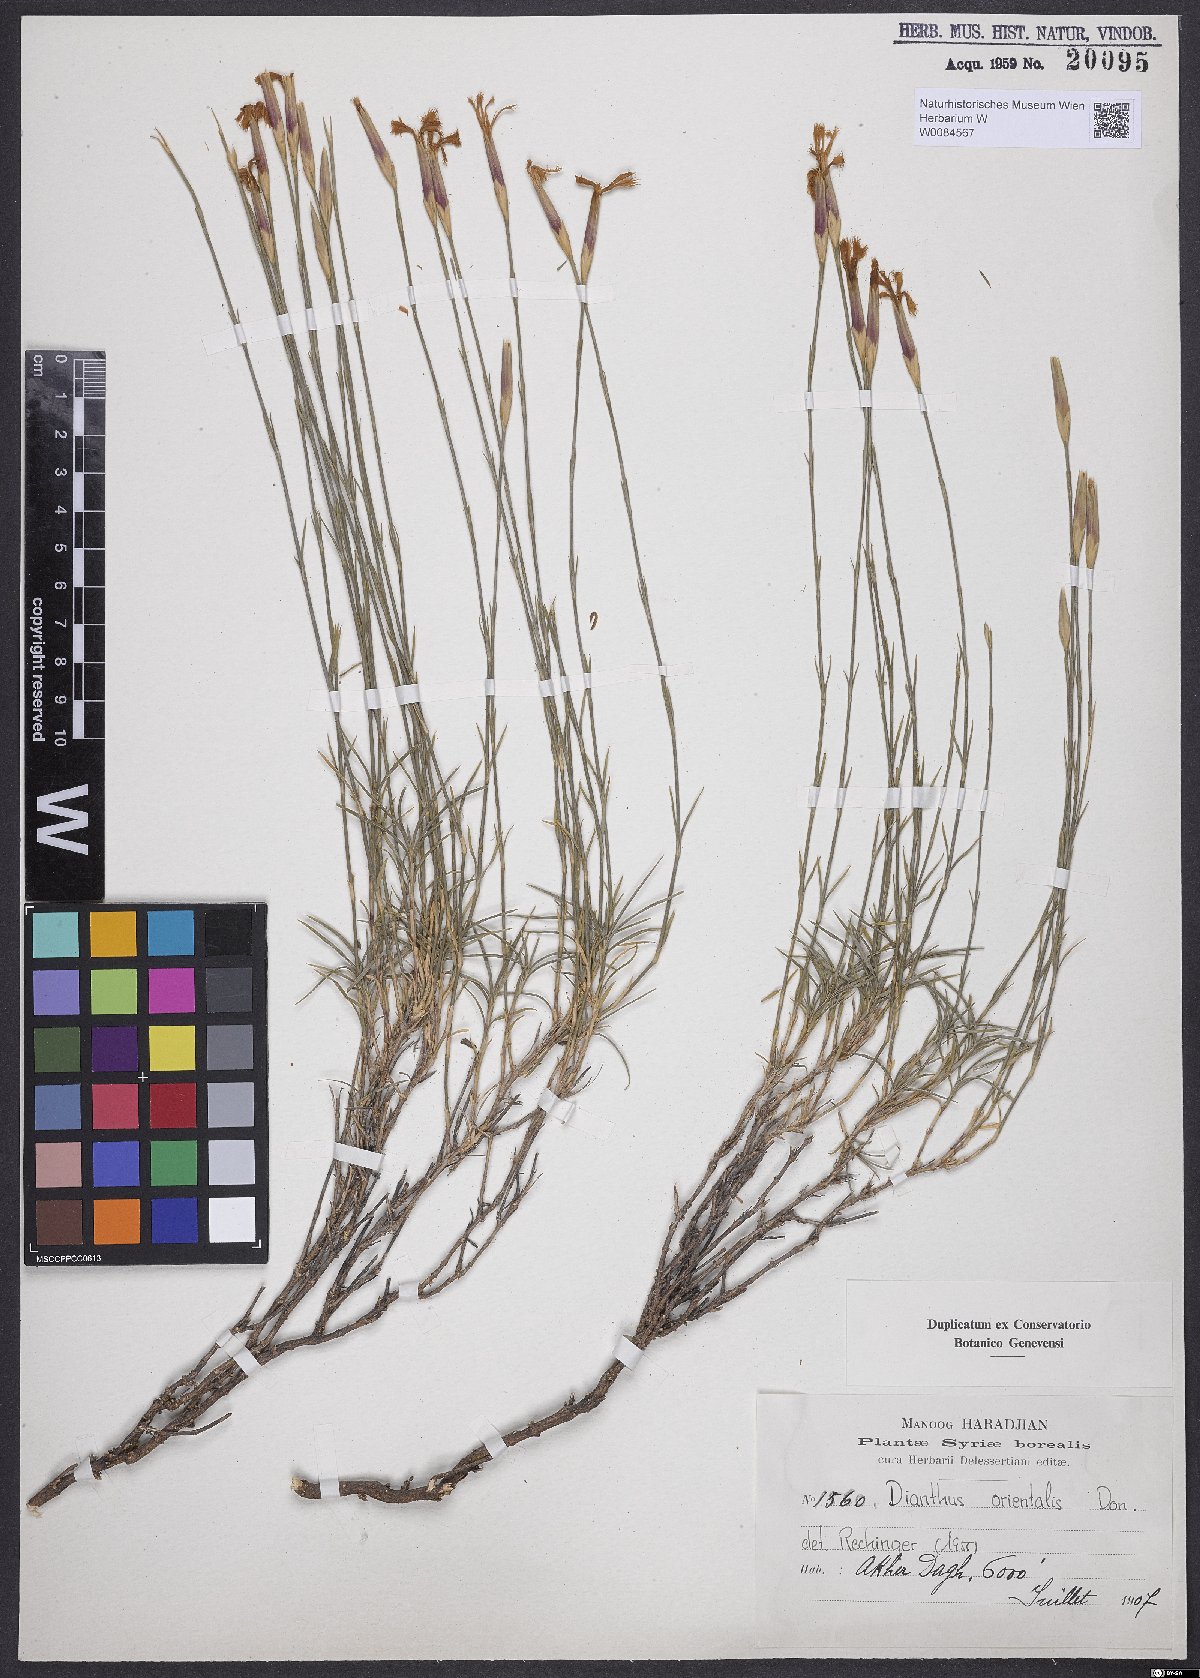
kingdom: Plantae
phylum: Tracheophyta
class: Magnoliopsida
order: Caryophyllales
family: Caryophyllaceae
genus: Dianthus
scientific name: Dianthus orientalis
